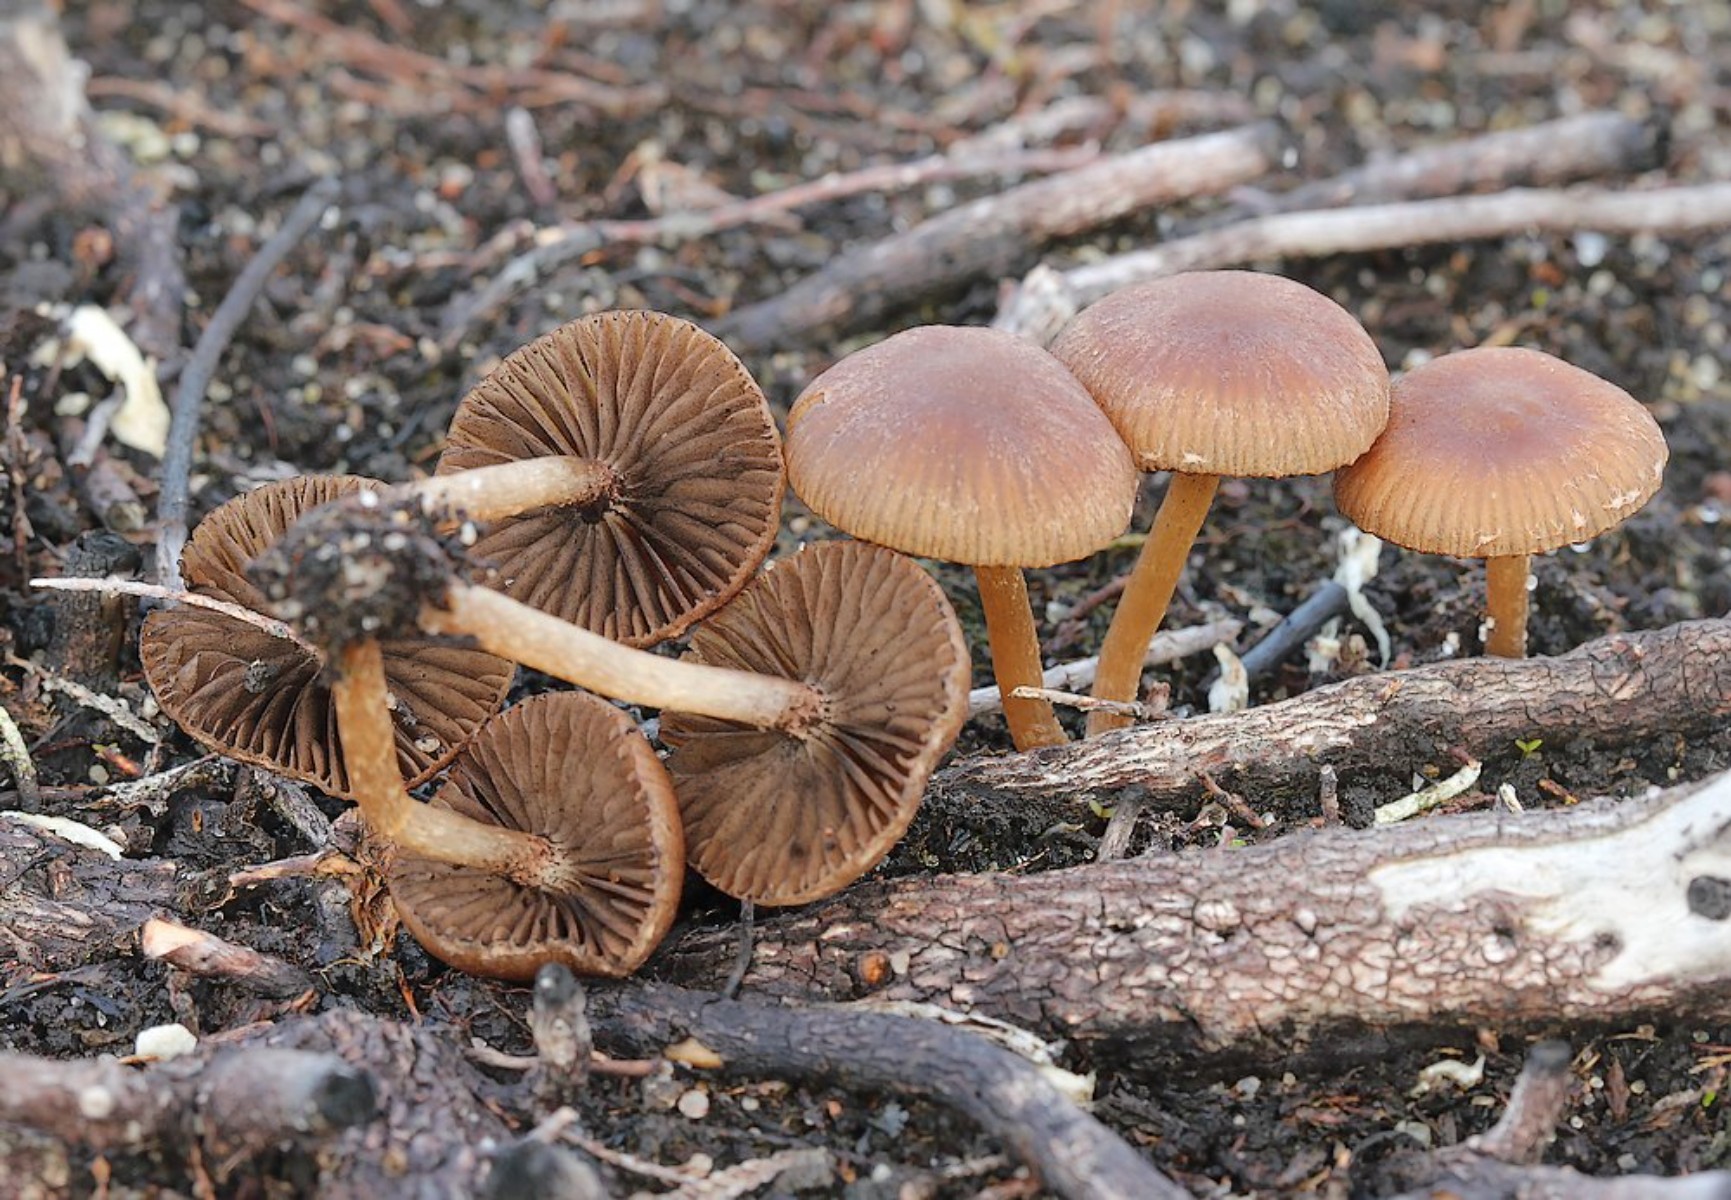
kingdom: Fungi
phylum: Basidiomycota
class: Agaricomycetes
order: Agaricales
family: Psathyrellaceae
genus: Psathyrella
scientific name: Psathyrella flexispora
